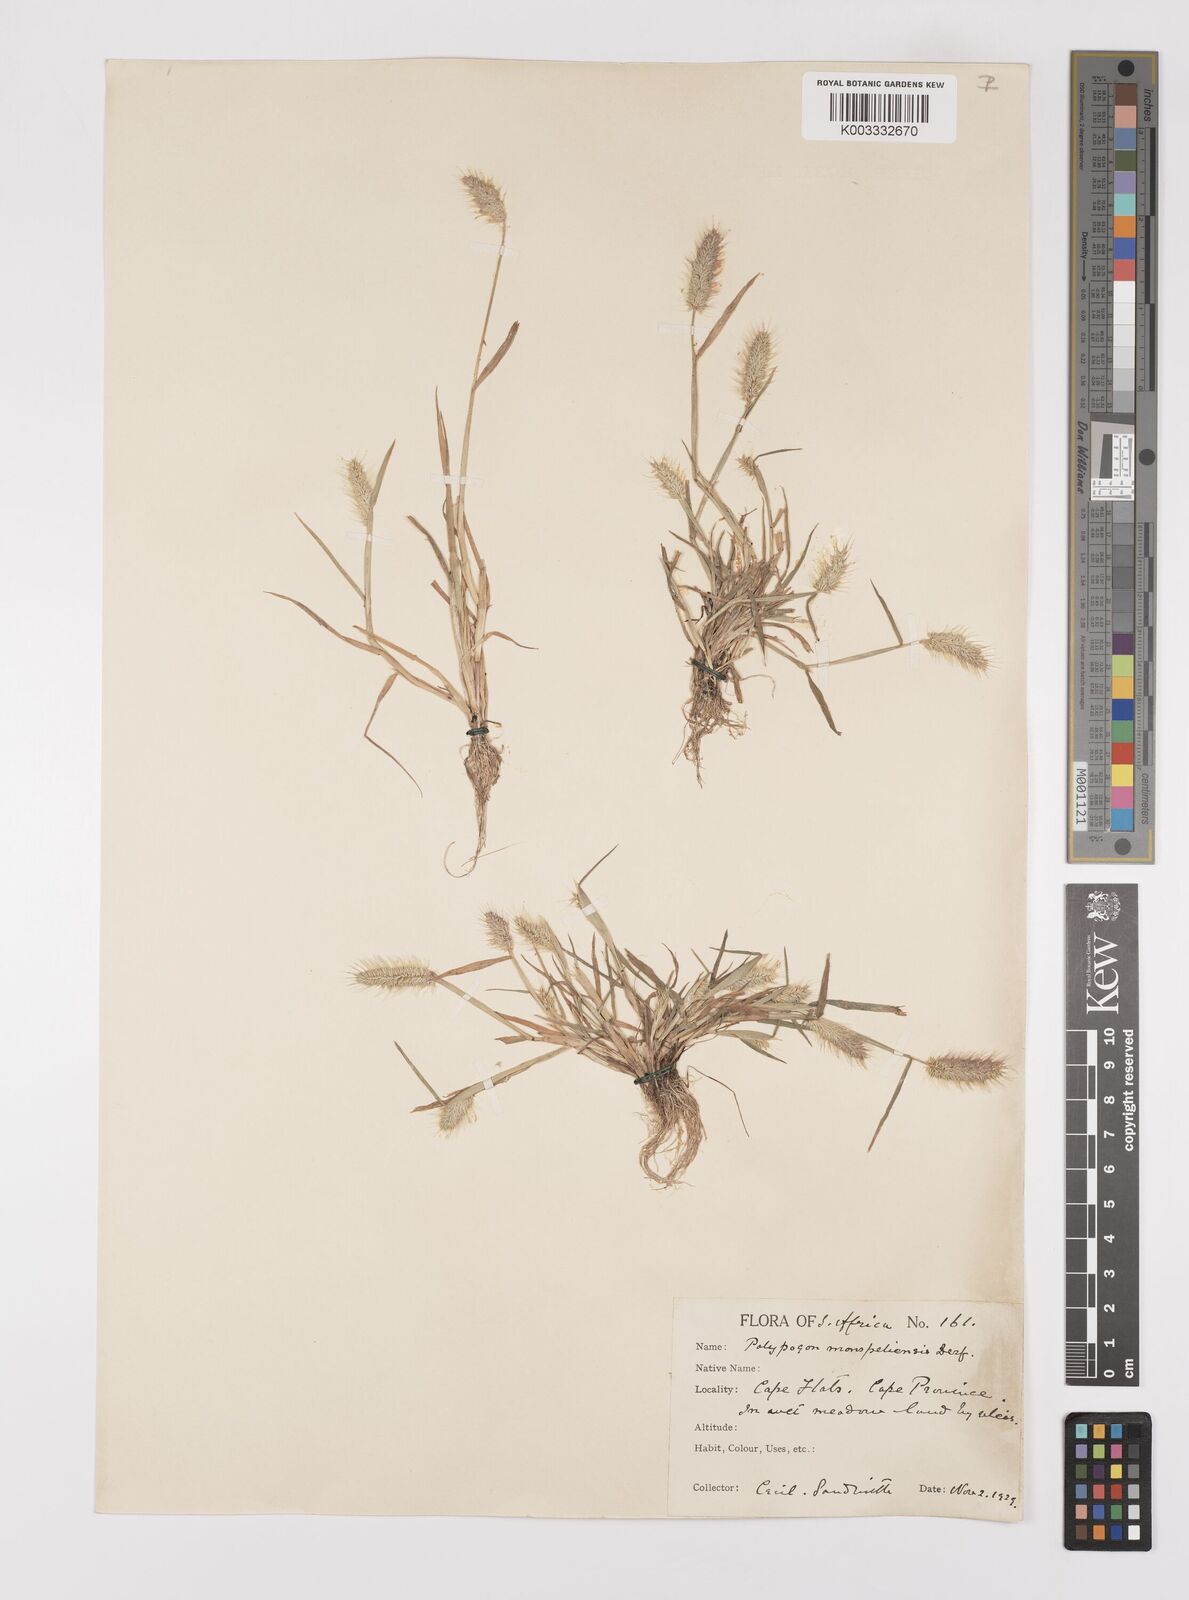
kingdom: Plantae
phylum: Tracheophyta
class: Liliopsida
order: Poales
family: Poaceae
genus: Polypogon
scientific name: Polypogon monspeliensis
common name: Annual rabbitsfoot grass
